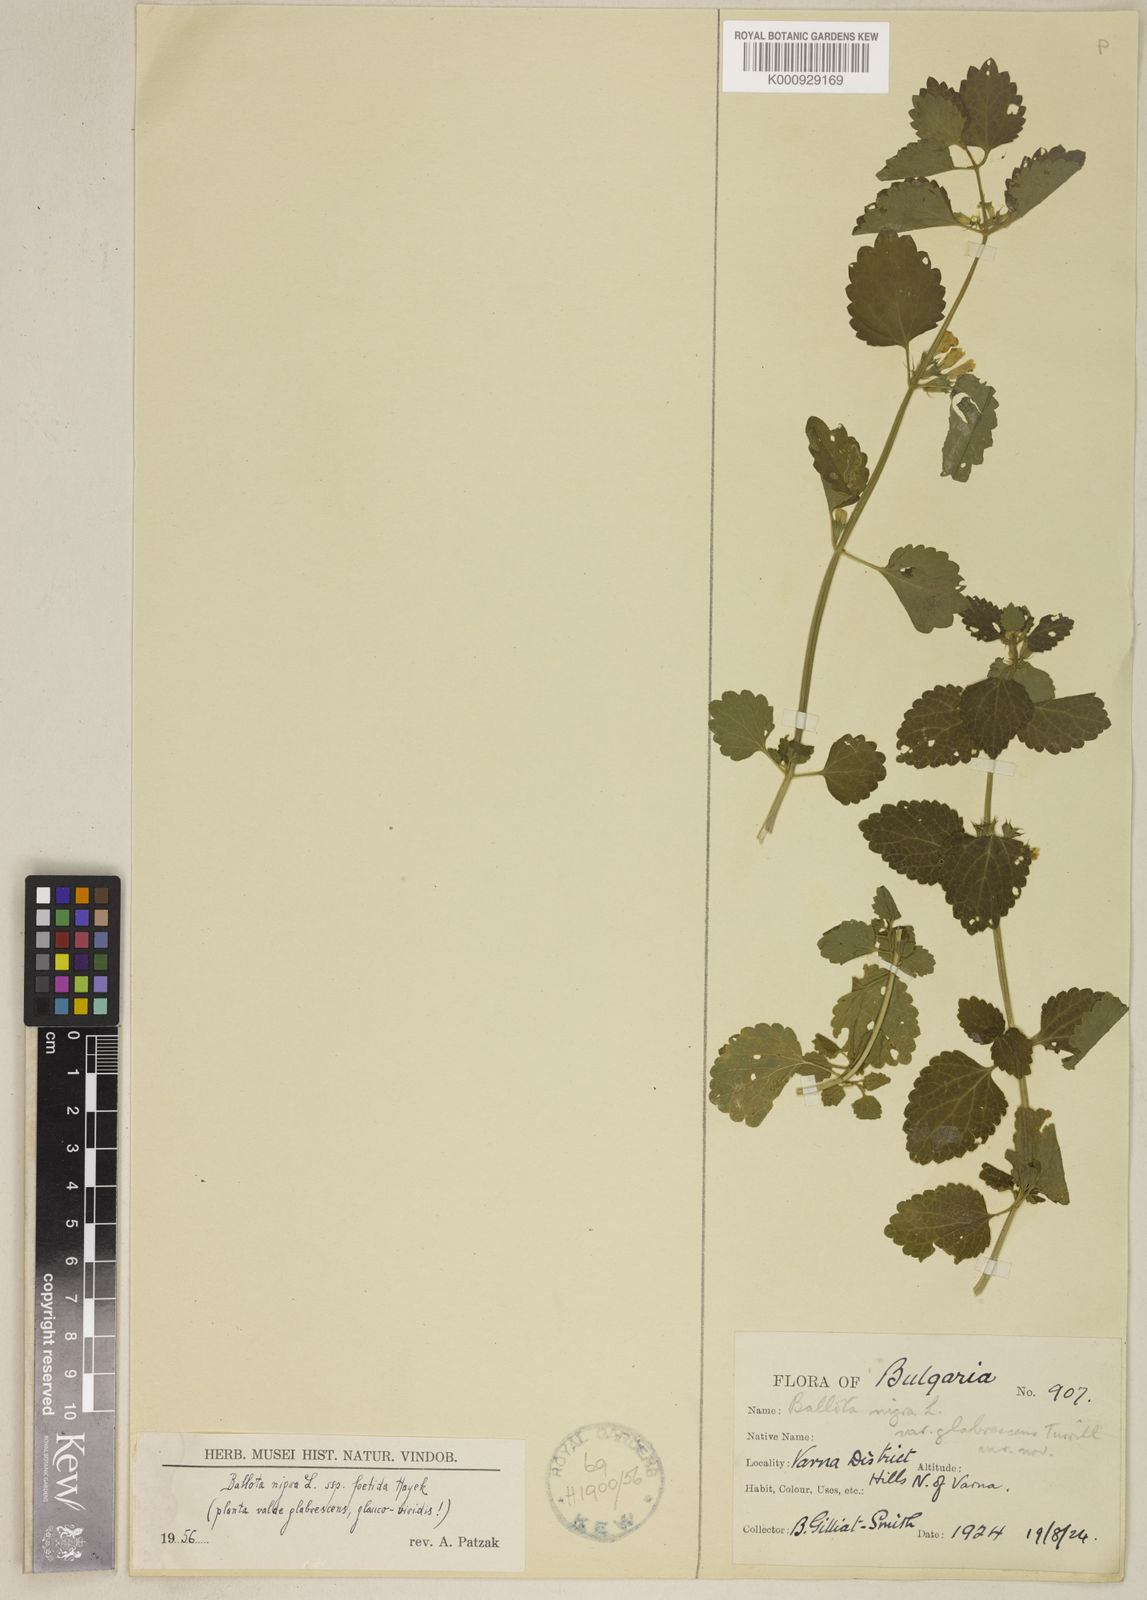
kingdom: Plantae
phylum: Tracheophyta
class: Magnoliopsida
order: Lamiales
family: Lamiaceae
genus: Ballota
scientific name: Ballota nigra
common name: Black horehound
